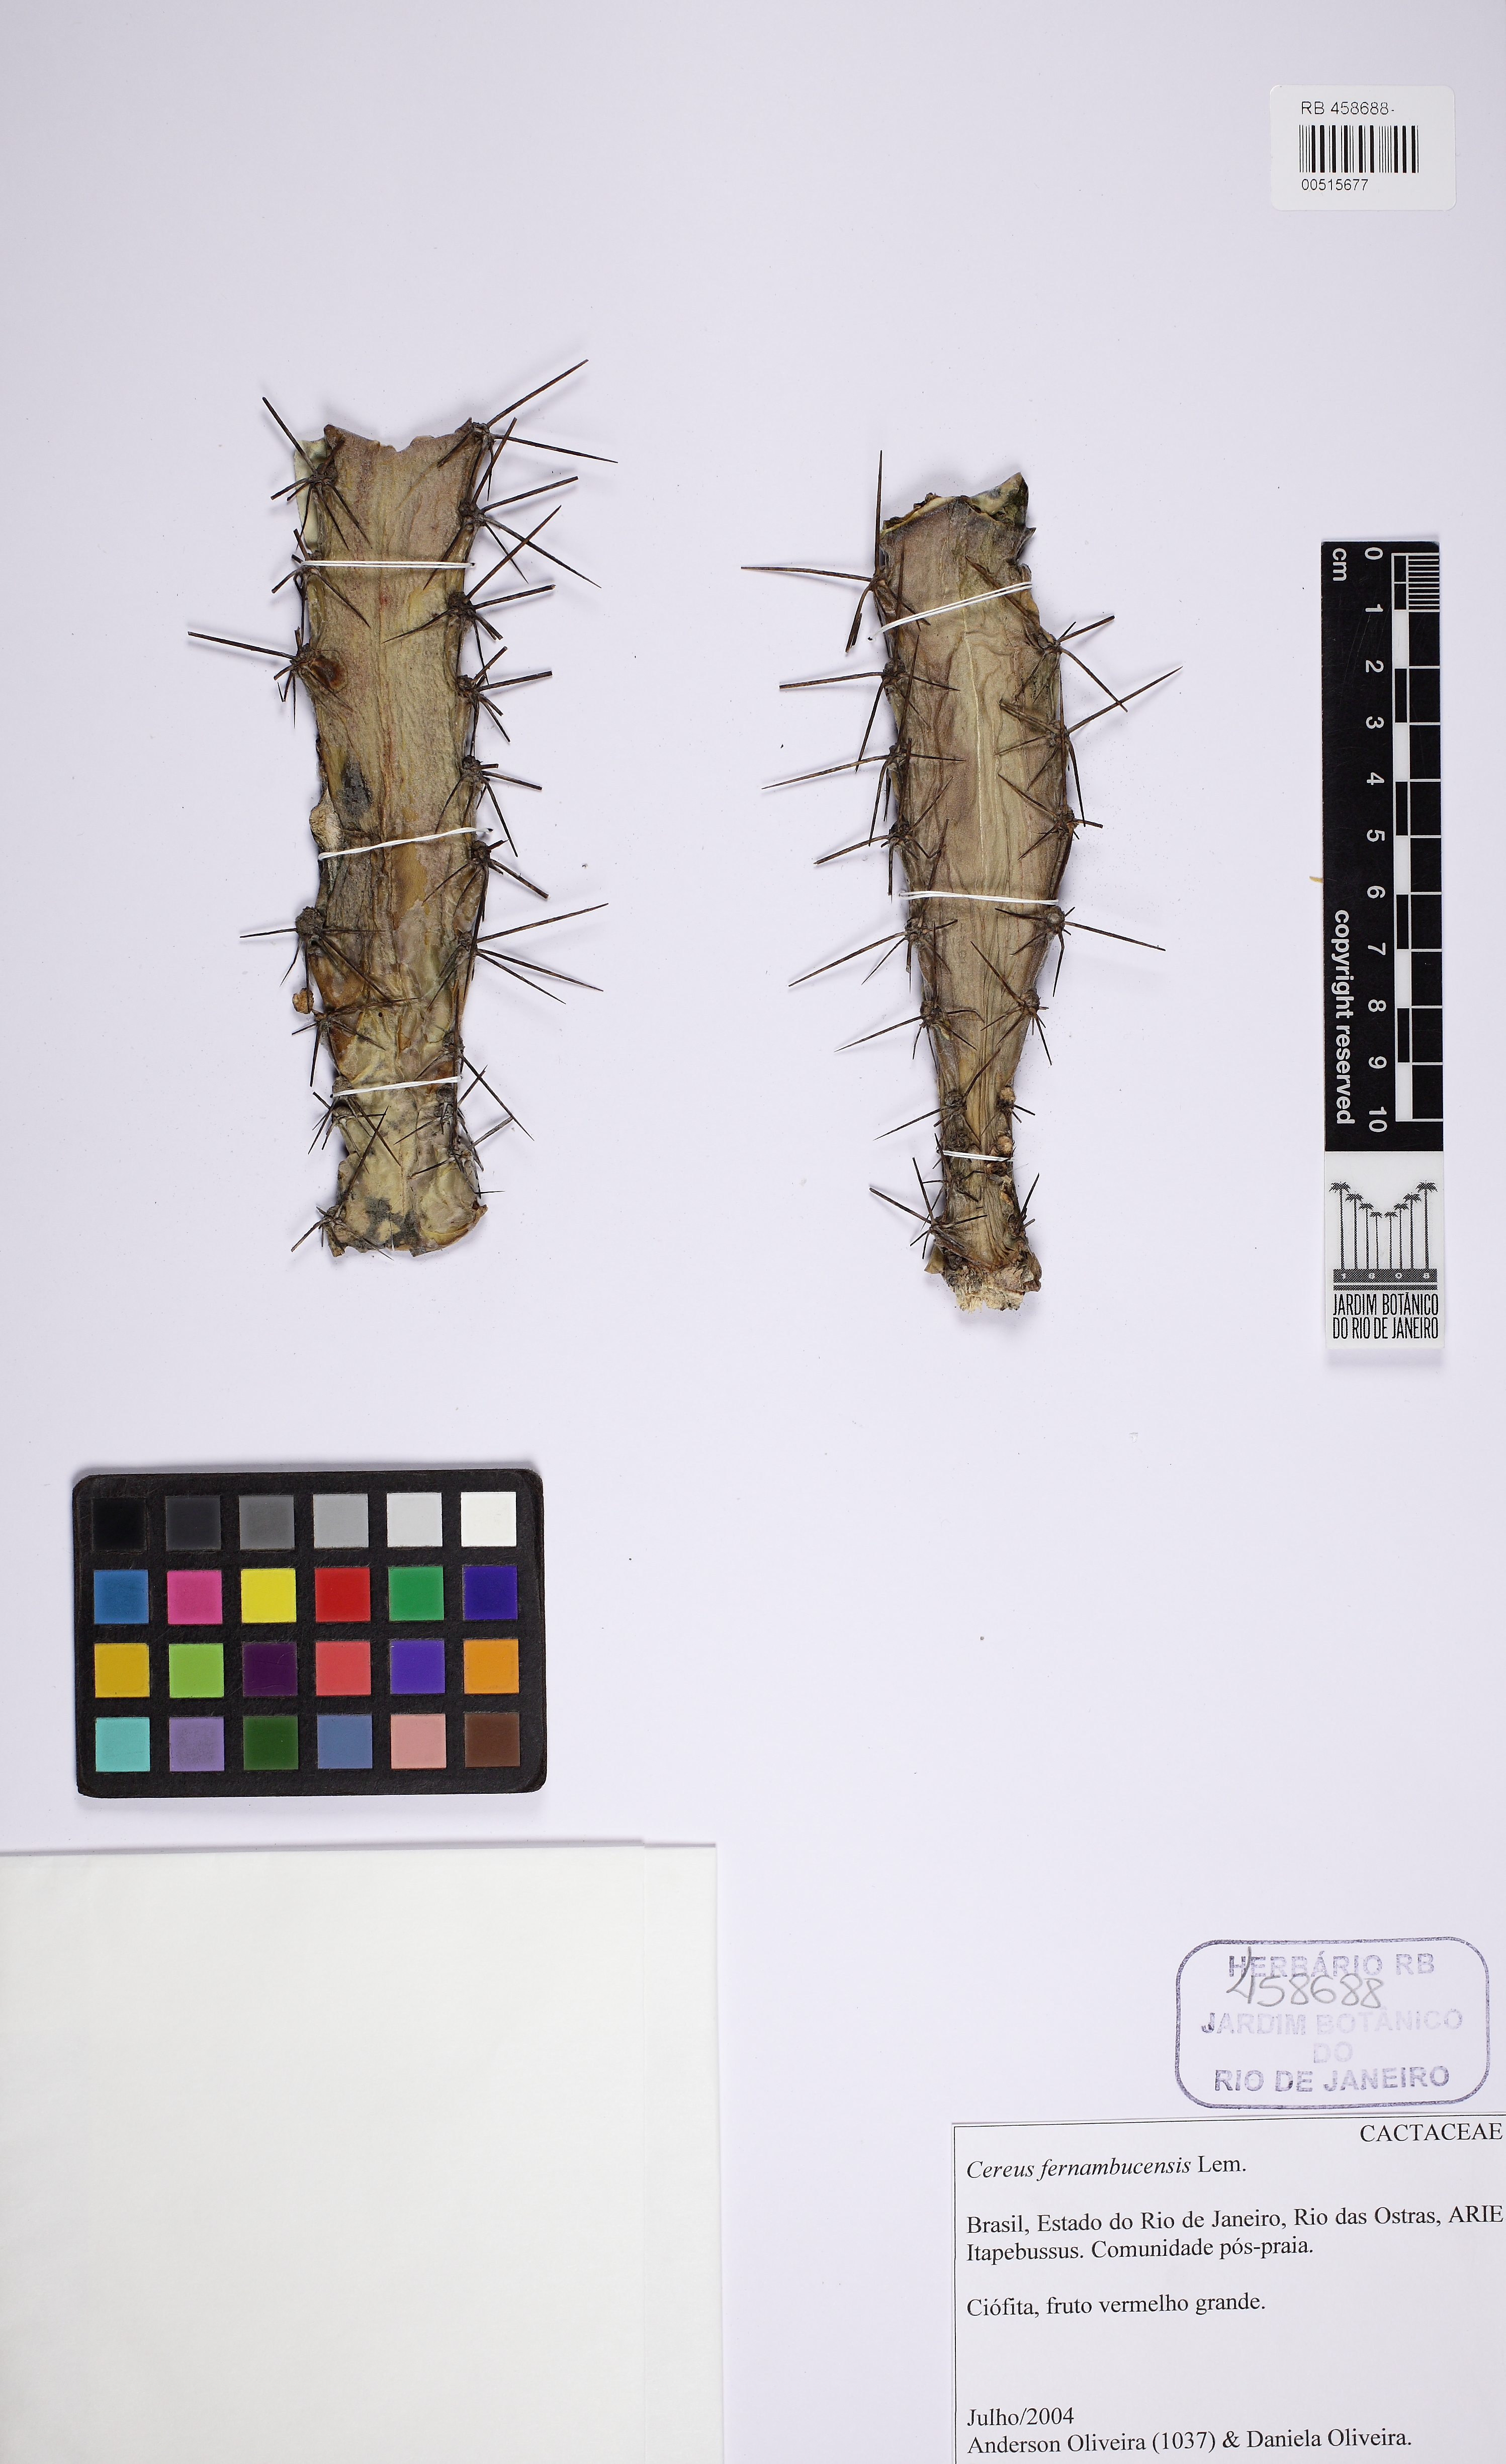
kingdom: Plantae
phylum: Tracheophyta
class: Magnoliopsida
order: Caryophyllales
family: Cactaceae
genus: Cereus
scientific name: Cereus fernambucensis
